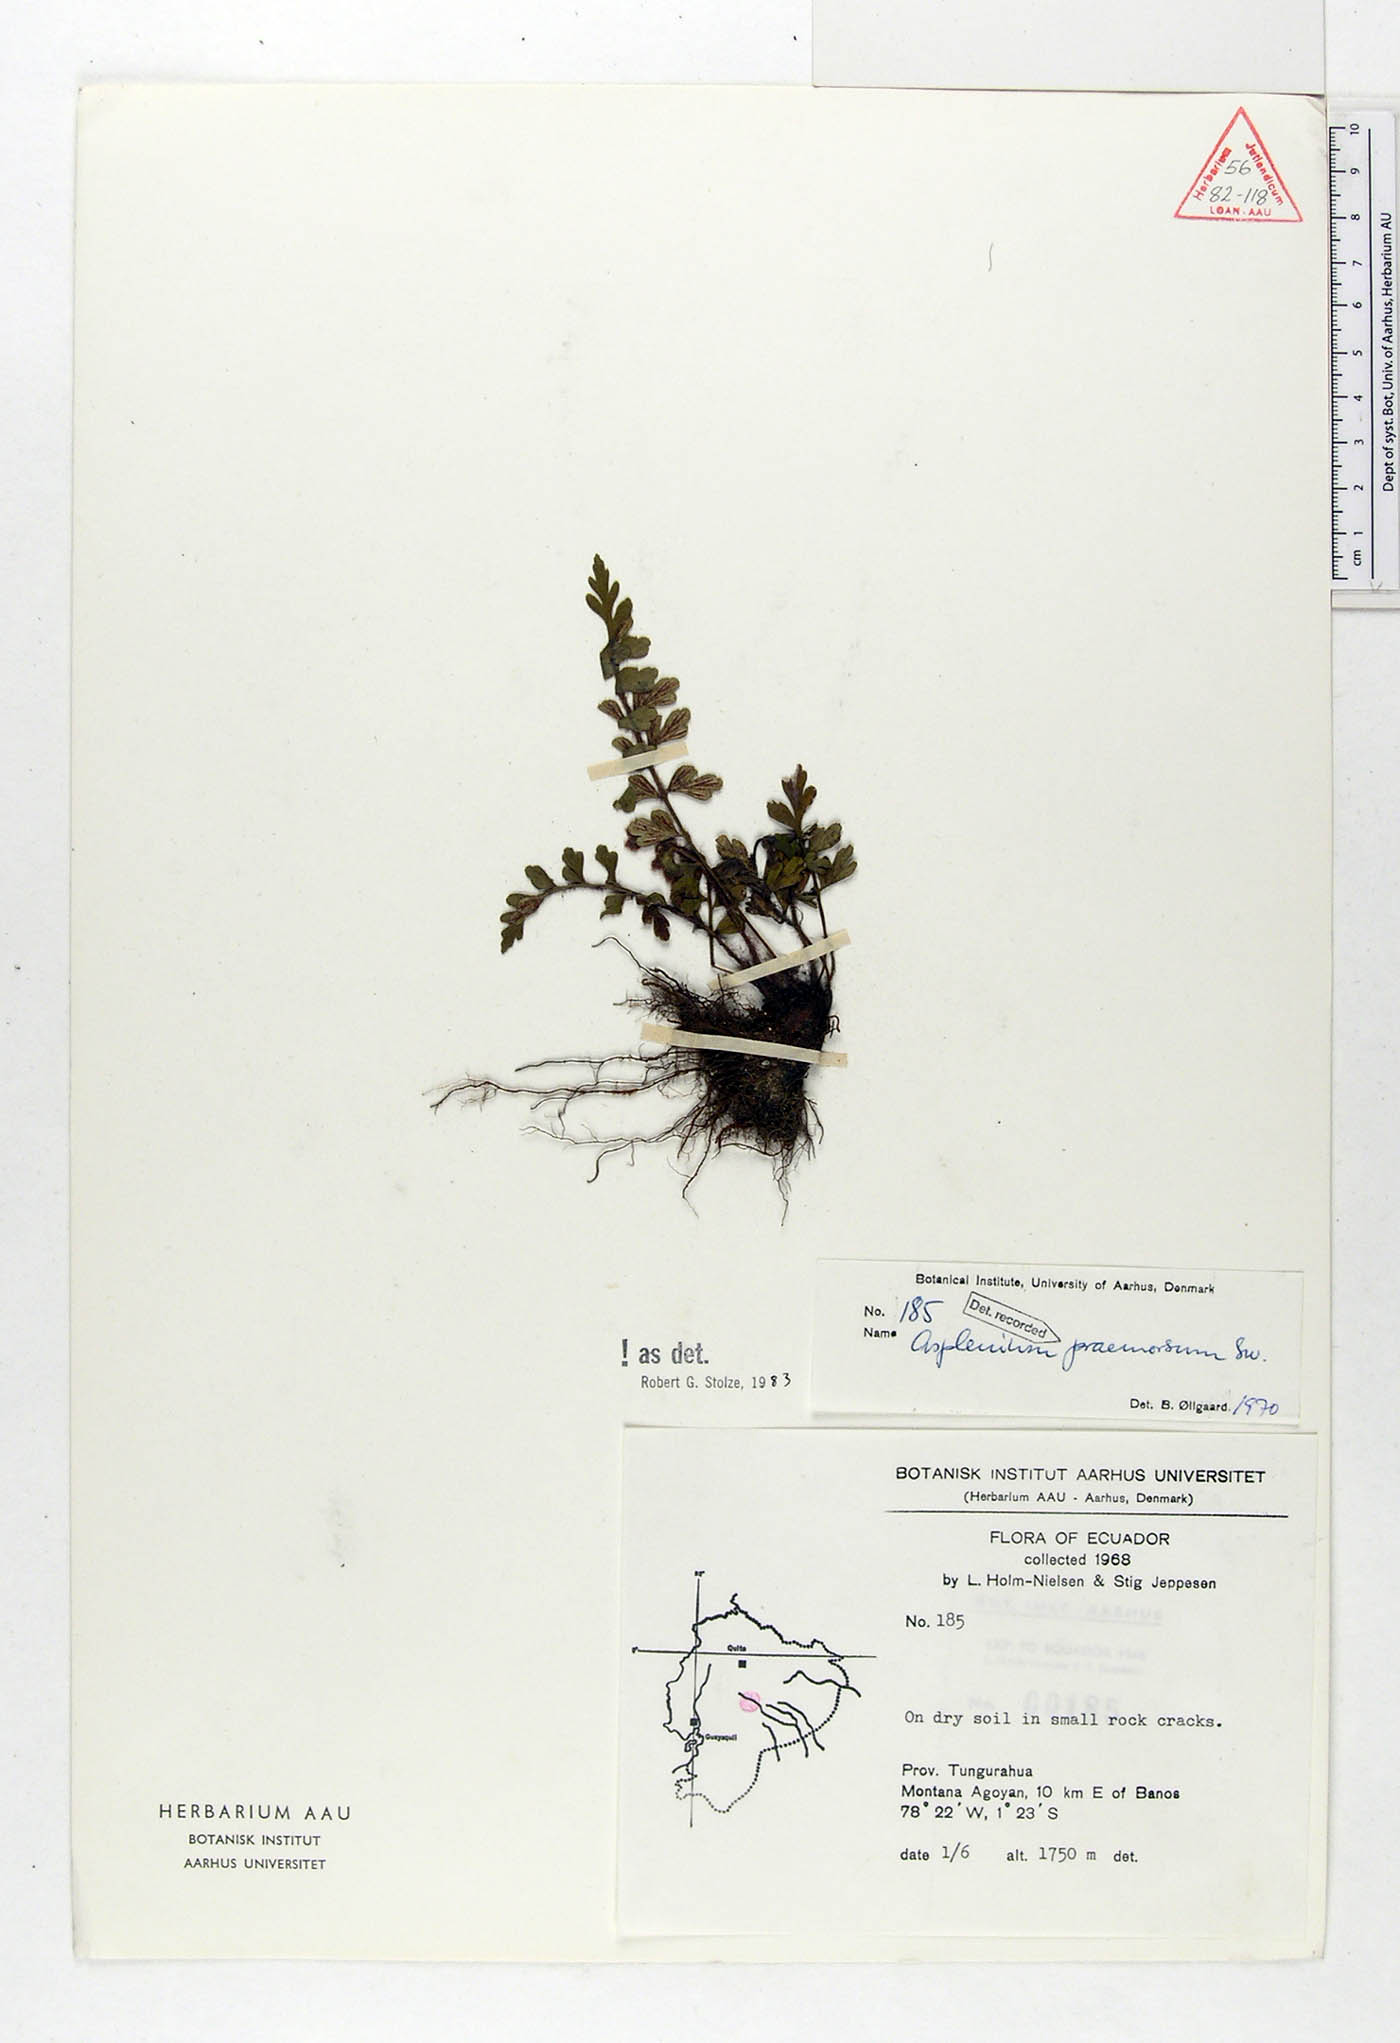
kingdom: Plantae
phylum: Tracheophyta
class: Polypodiopsida
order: Polypodiales
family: Aspleniaceae
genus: Asplenium
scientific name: Asplenium praemorsum
